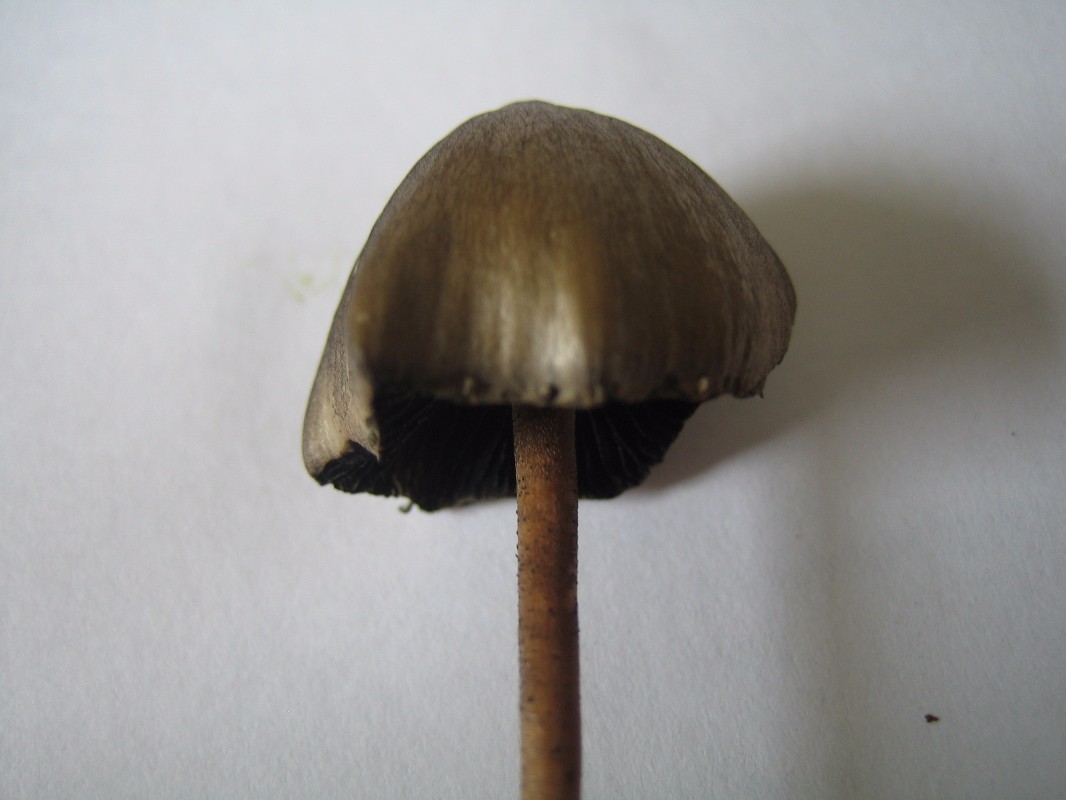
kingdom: Fungi
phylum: Basidiomycota
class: Agaricomycetes
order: Agaricales
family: Bolbitiaceae
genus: Panaeolus
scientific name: Panaeolus papilionaceus
